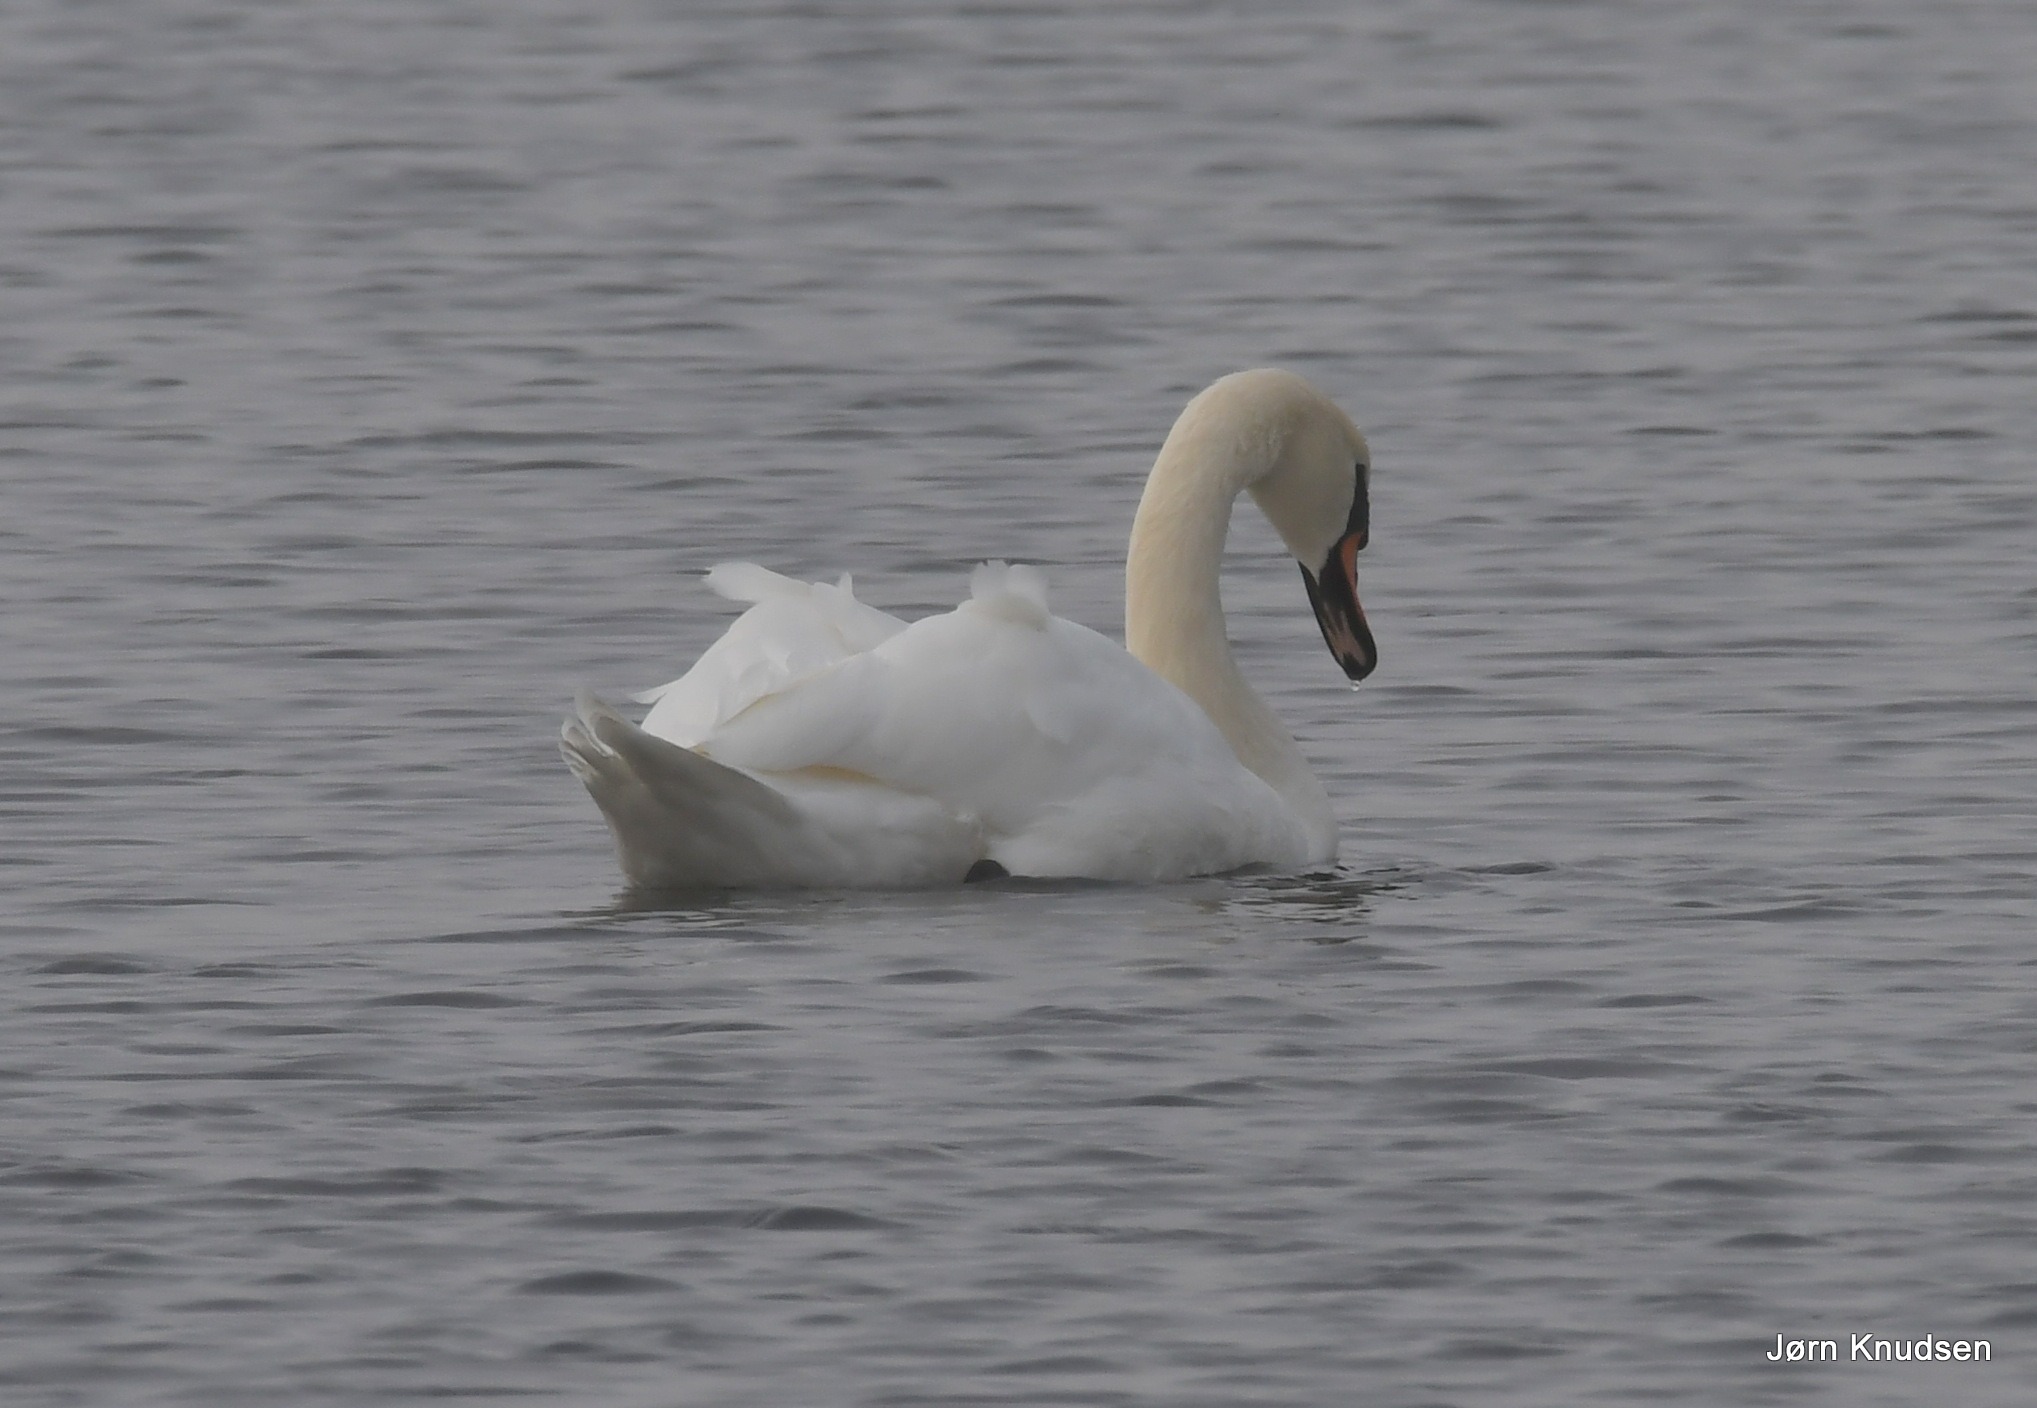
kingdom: Animalia
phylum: Chordata
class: Aves
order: Anseriformes
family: Anatidae
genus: Cygnus
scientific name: Cygnus olor
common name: Knopsvane
